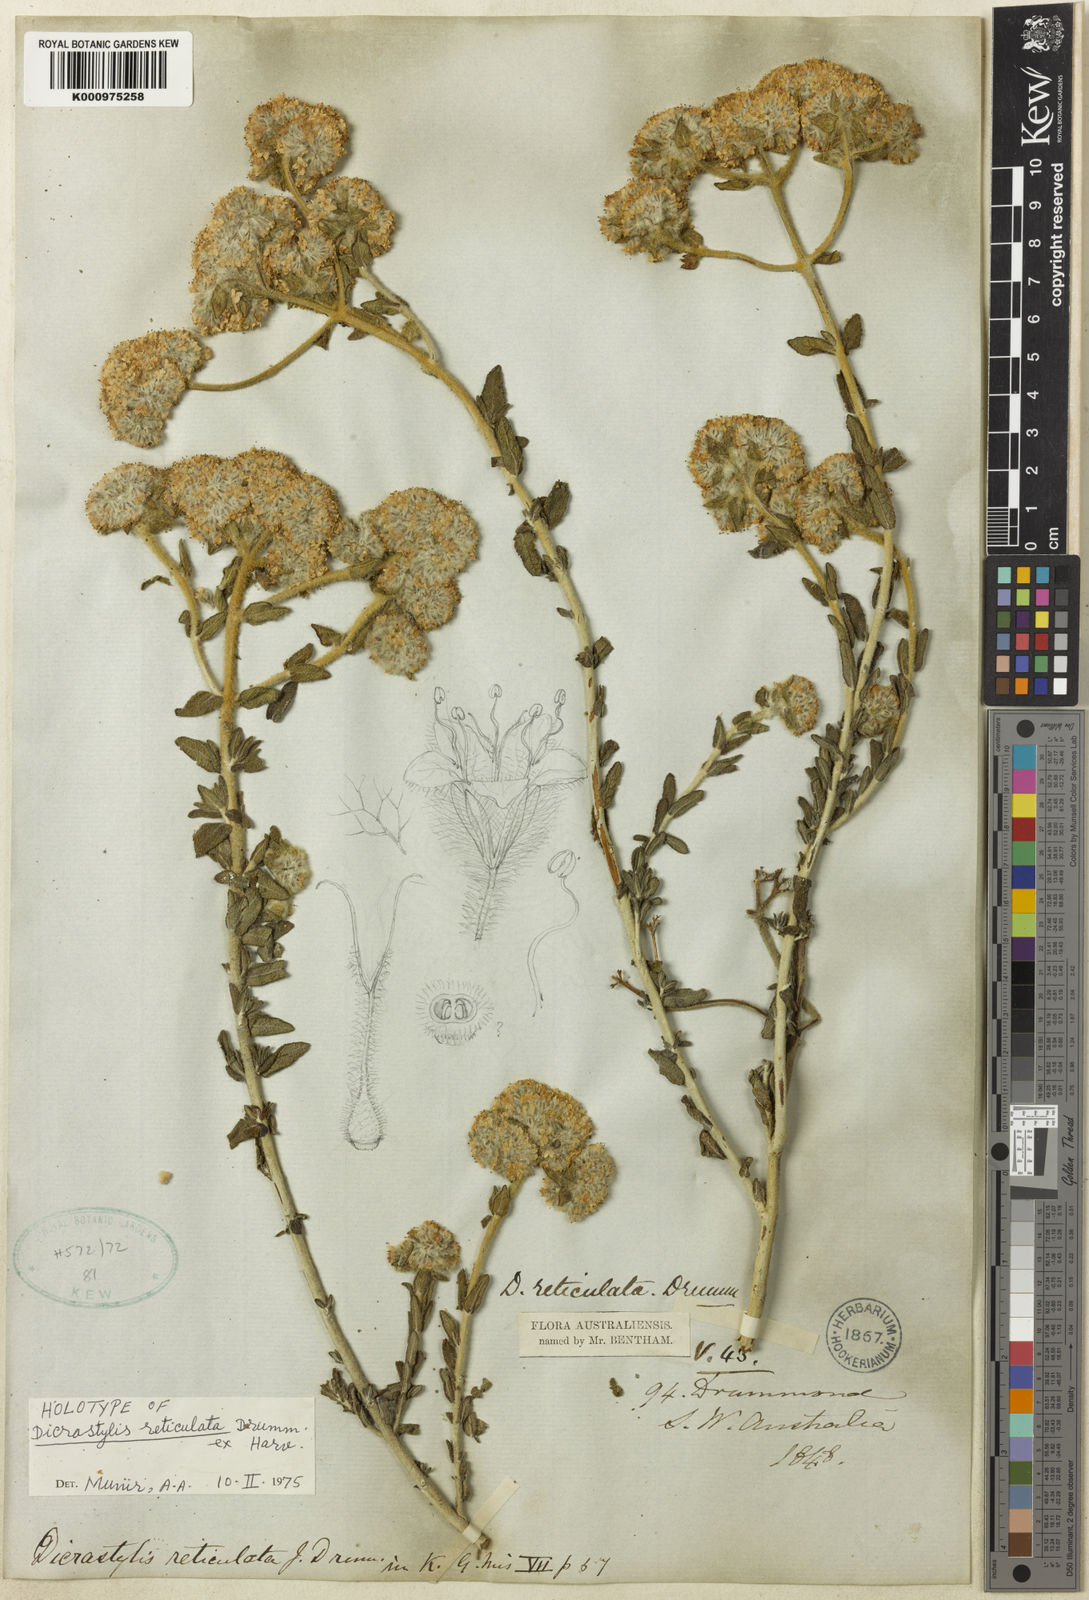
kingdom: Plantae
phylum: Tracheophyta
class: Magnoliopsida
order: Lamiales
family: Lamiaceae
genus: Dicrastylis
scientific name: Dicrastylis reticulata
